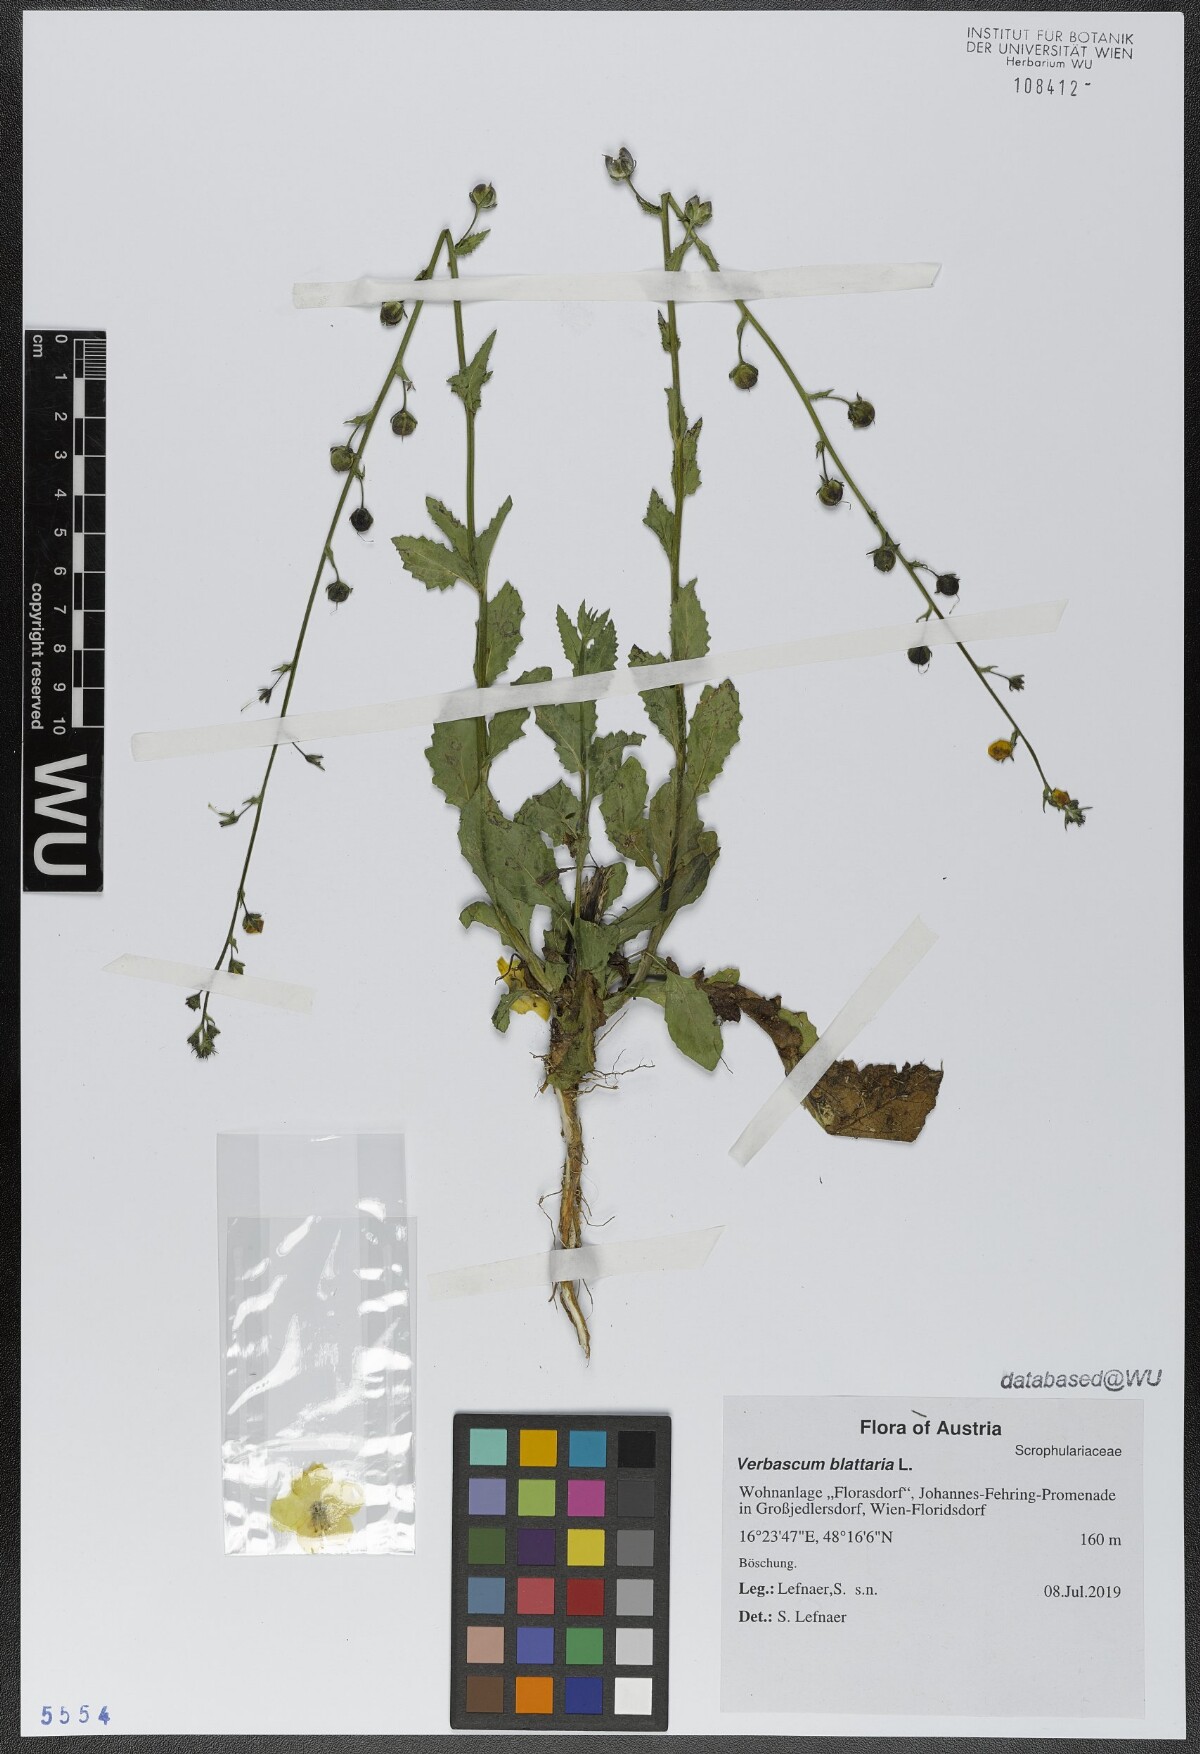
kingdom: Plantae
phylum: Tracheophyta
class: Magnoliopsida
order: Lamiales
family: Scrophulariaceae
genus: Verbascum
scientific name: Verbascum blattaria
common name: Moth mullein
